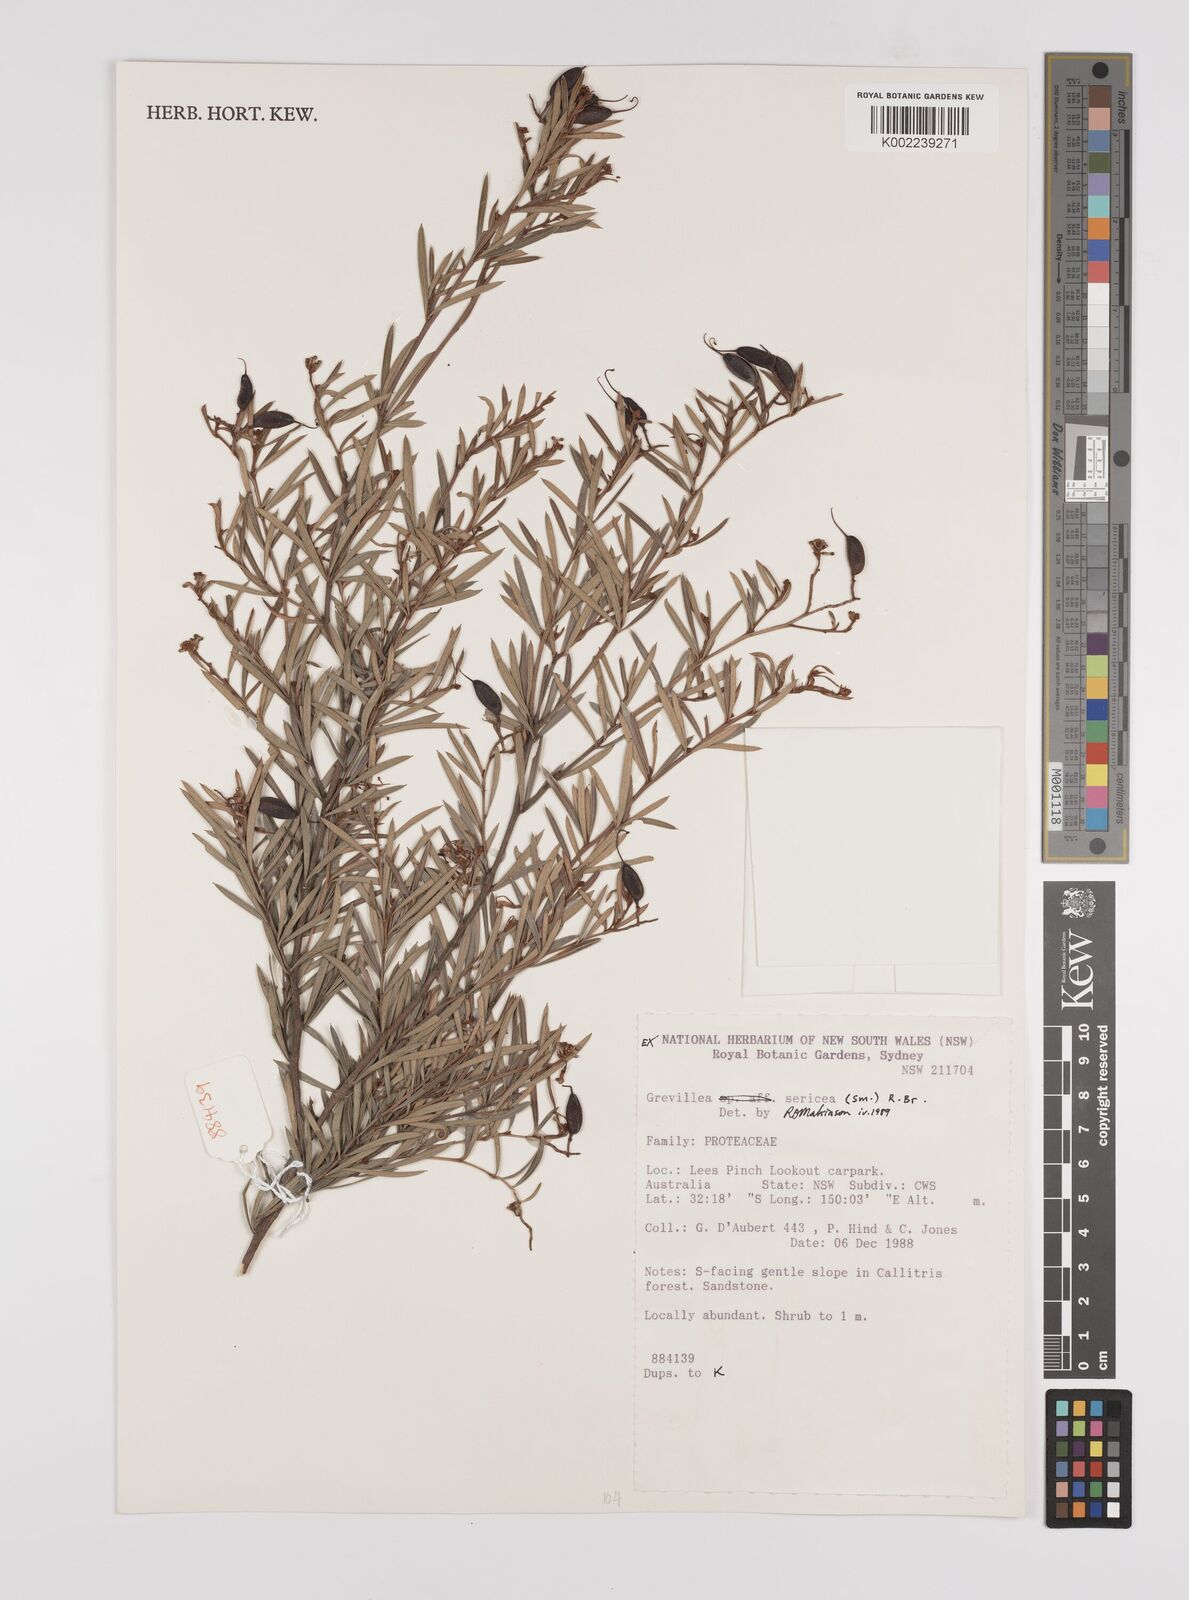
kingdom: Plantae
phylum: Tracheophyta
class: Magnoliopsida
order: Proteales
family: Proteaceae
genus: Grevillea
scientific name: Grevillea sericea
